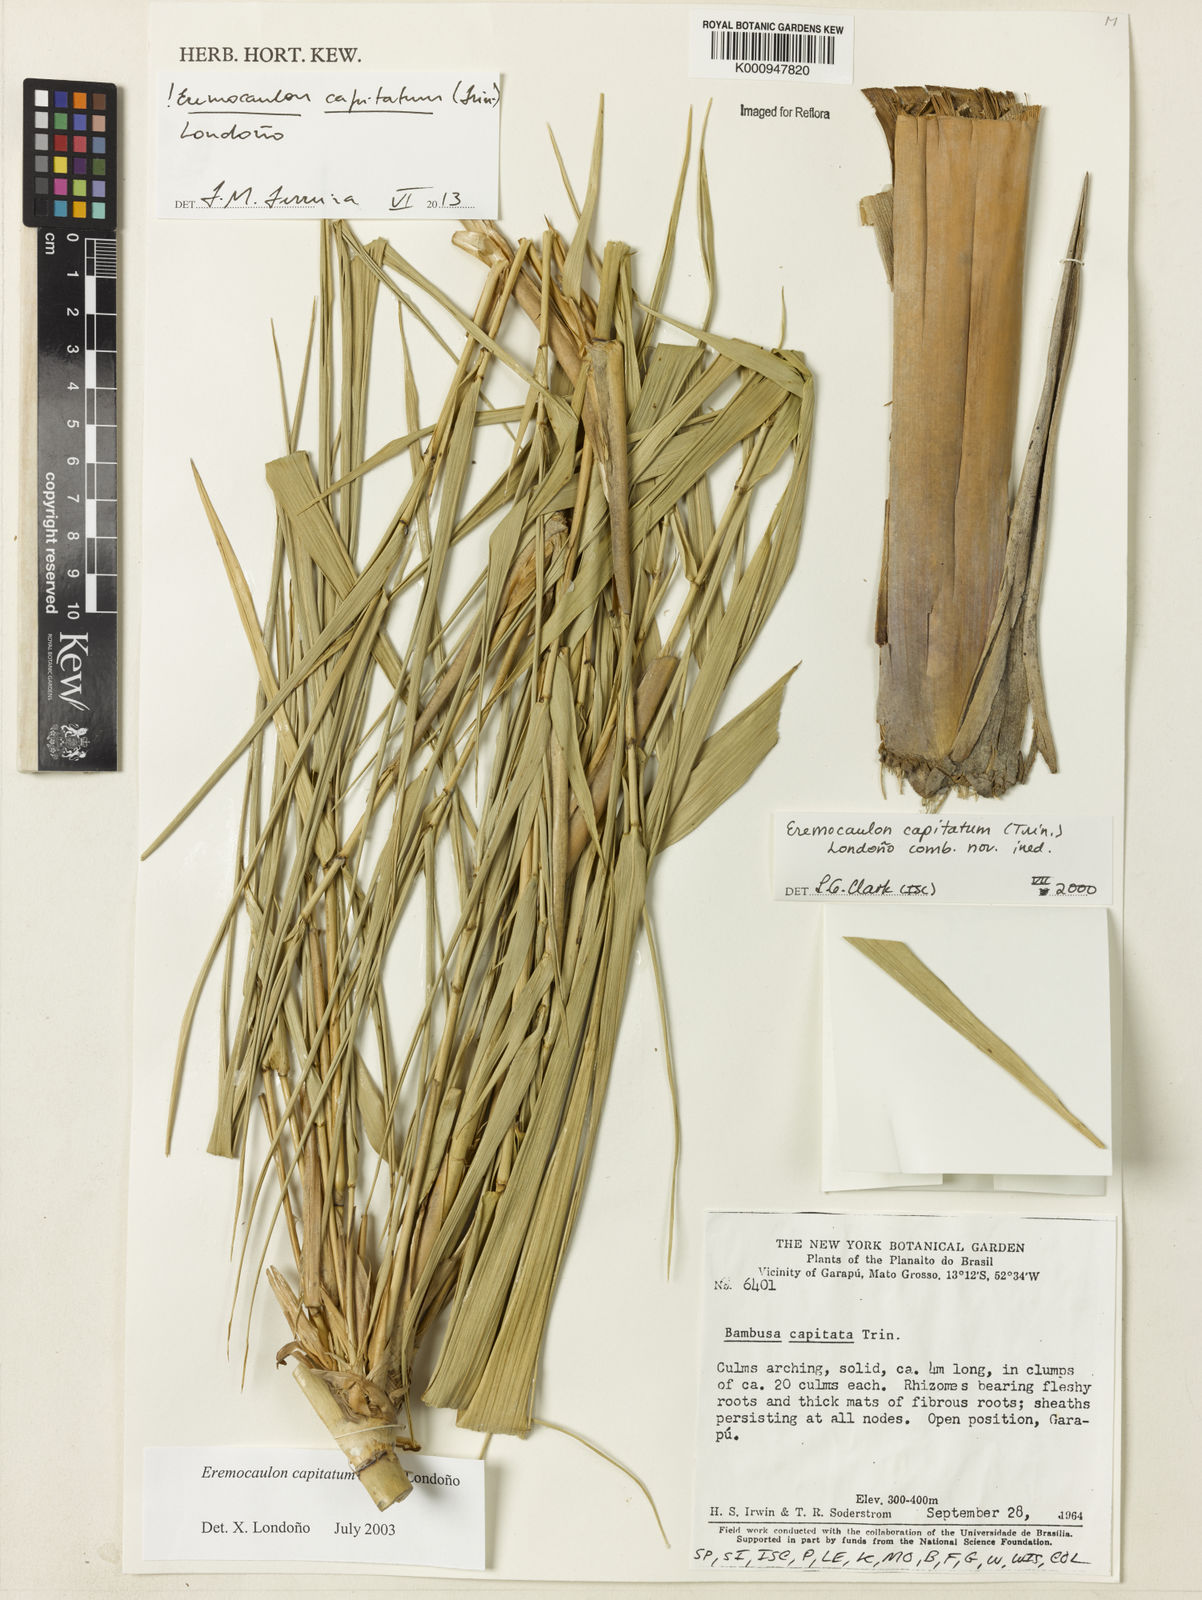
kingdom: Plantae
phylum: Tracheophyta
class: Liliopsida
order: Poales
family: Poaceae
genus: Eremocaulon
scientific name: Eremocaulon
